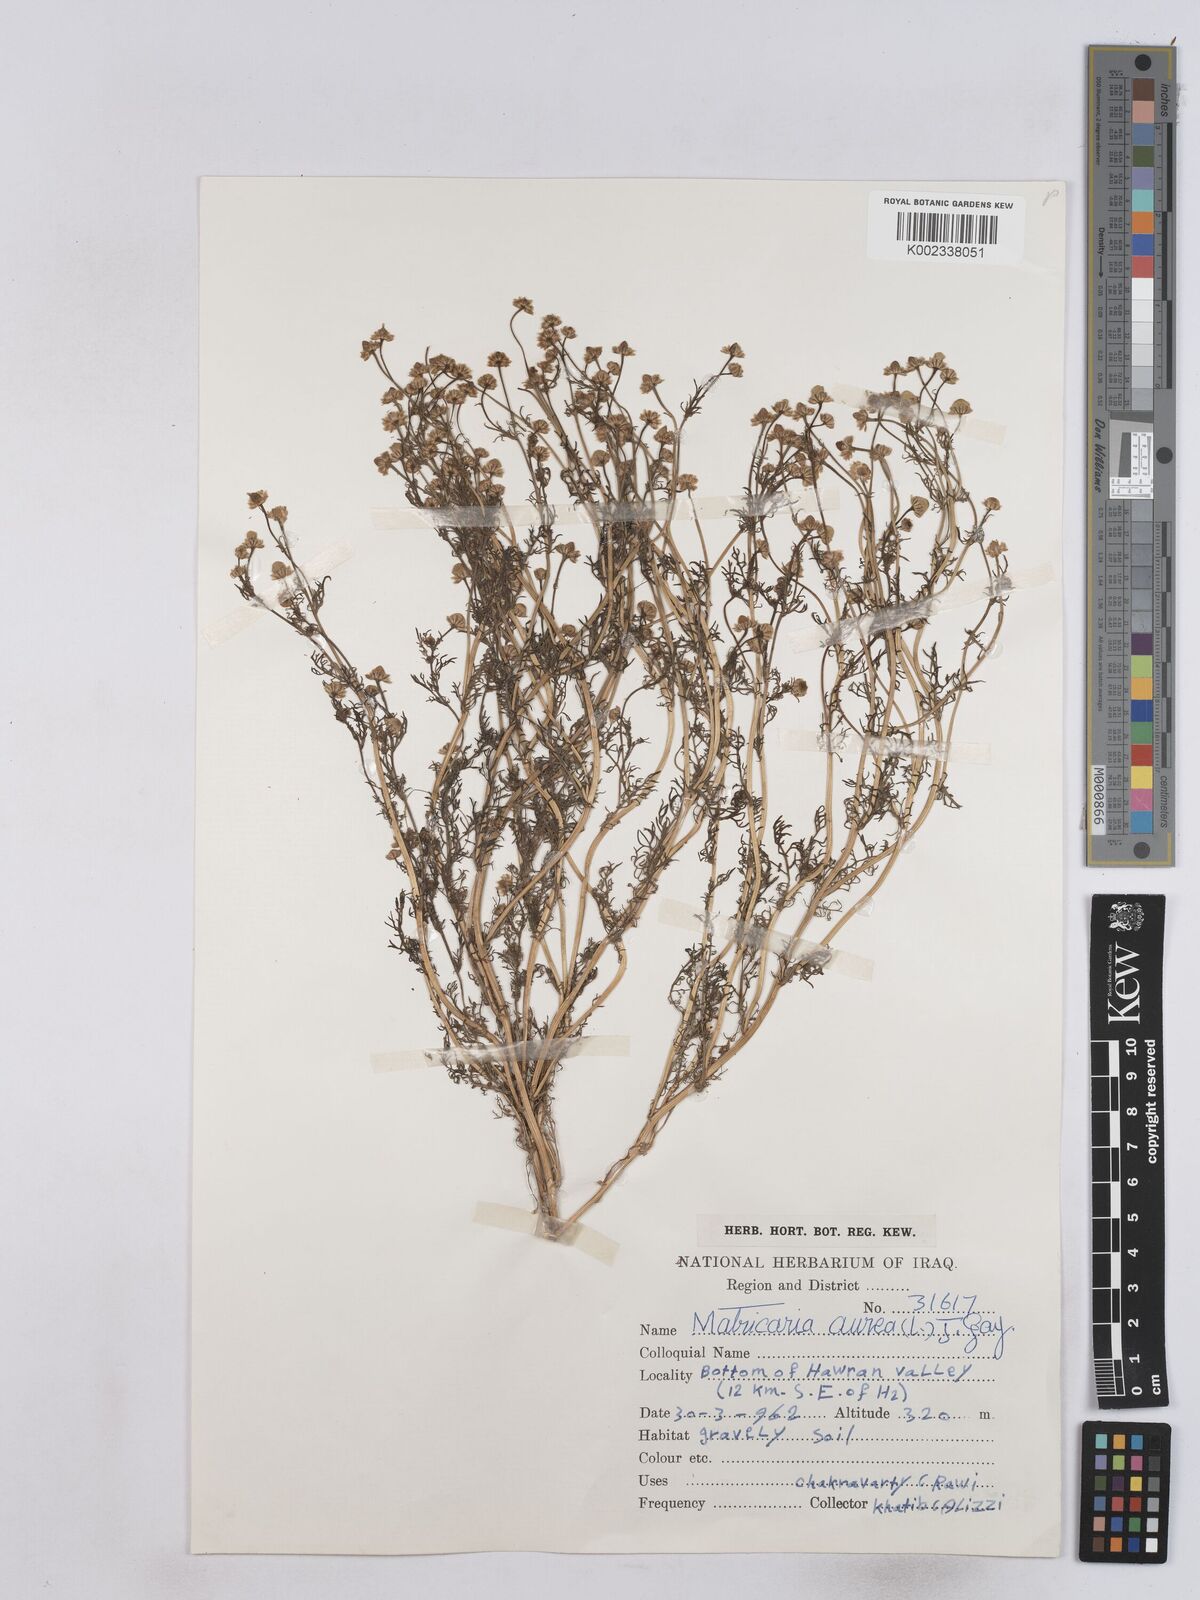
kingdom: Plantae
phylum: Tracheophyta
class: Magnoliopsida
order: Asterales
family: Asteraceae
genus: Matricaria
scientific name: Matricaria aurea
